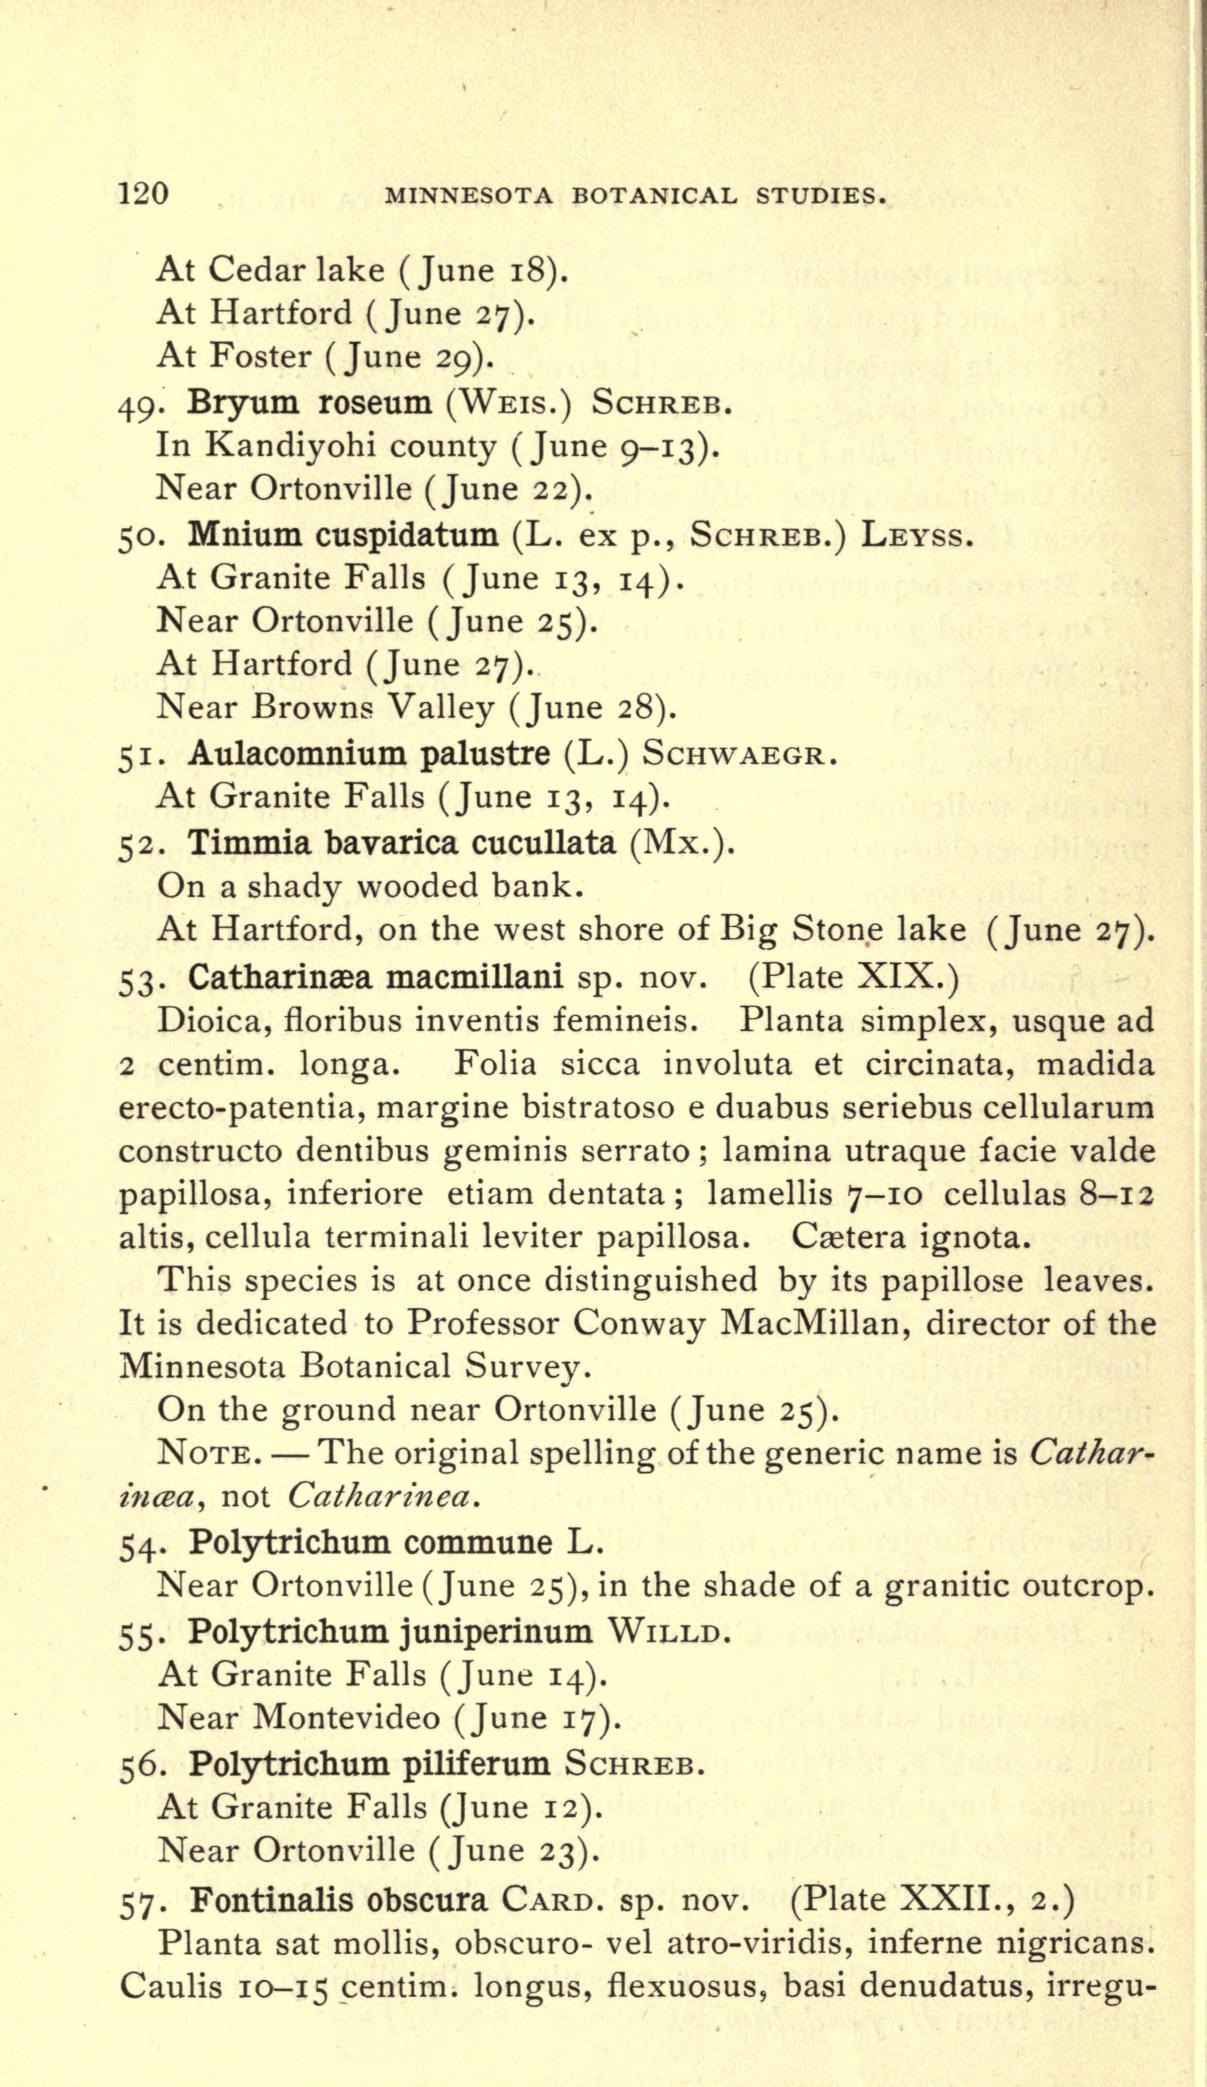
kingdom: Plantae
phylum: Bryophyta
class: Bryopsida
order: Hypnales
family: Fontinalaceae
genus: Fontinalis
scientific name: Fontinalis hypnoides
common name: River moss
